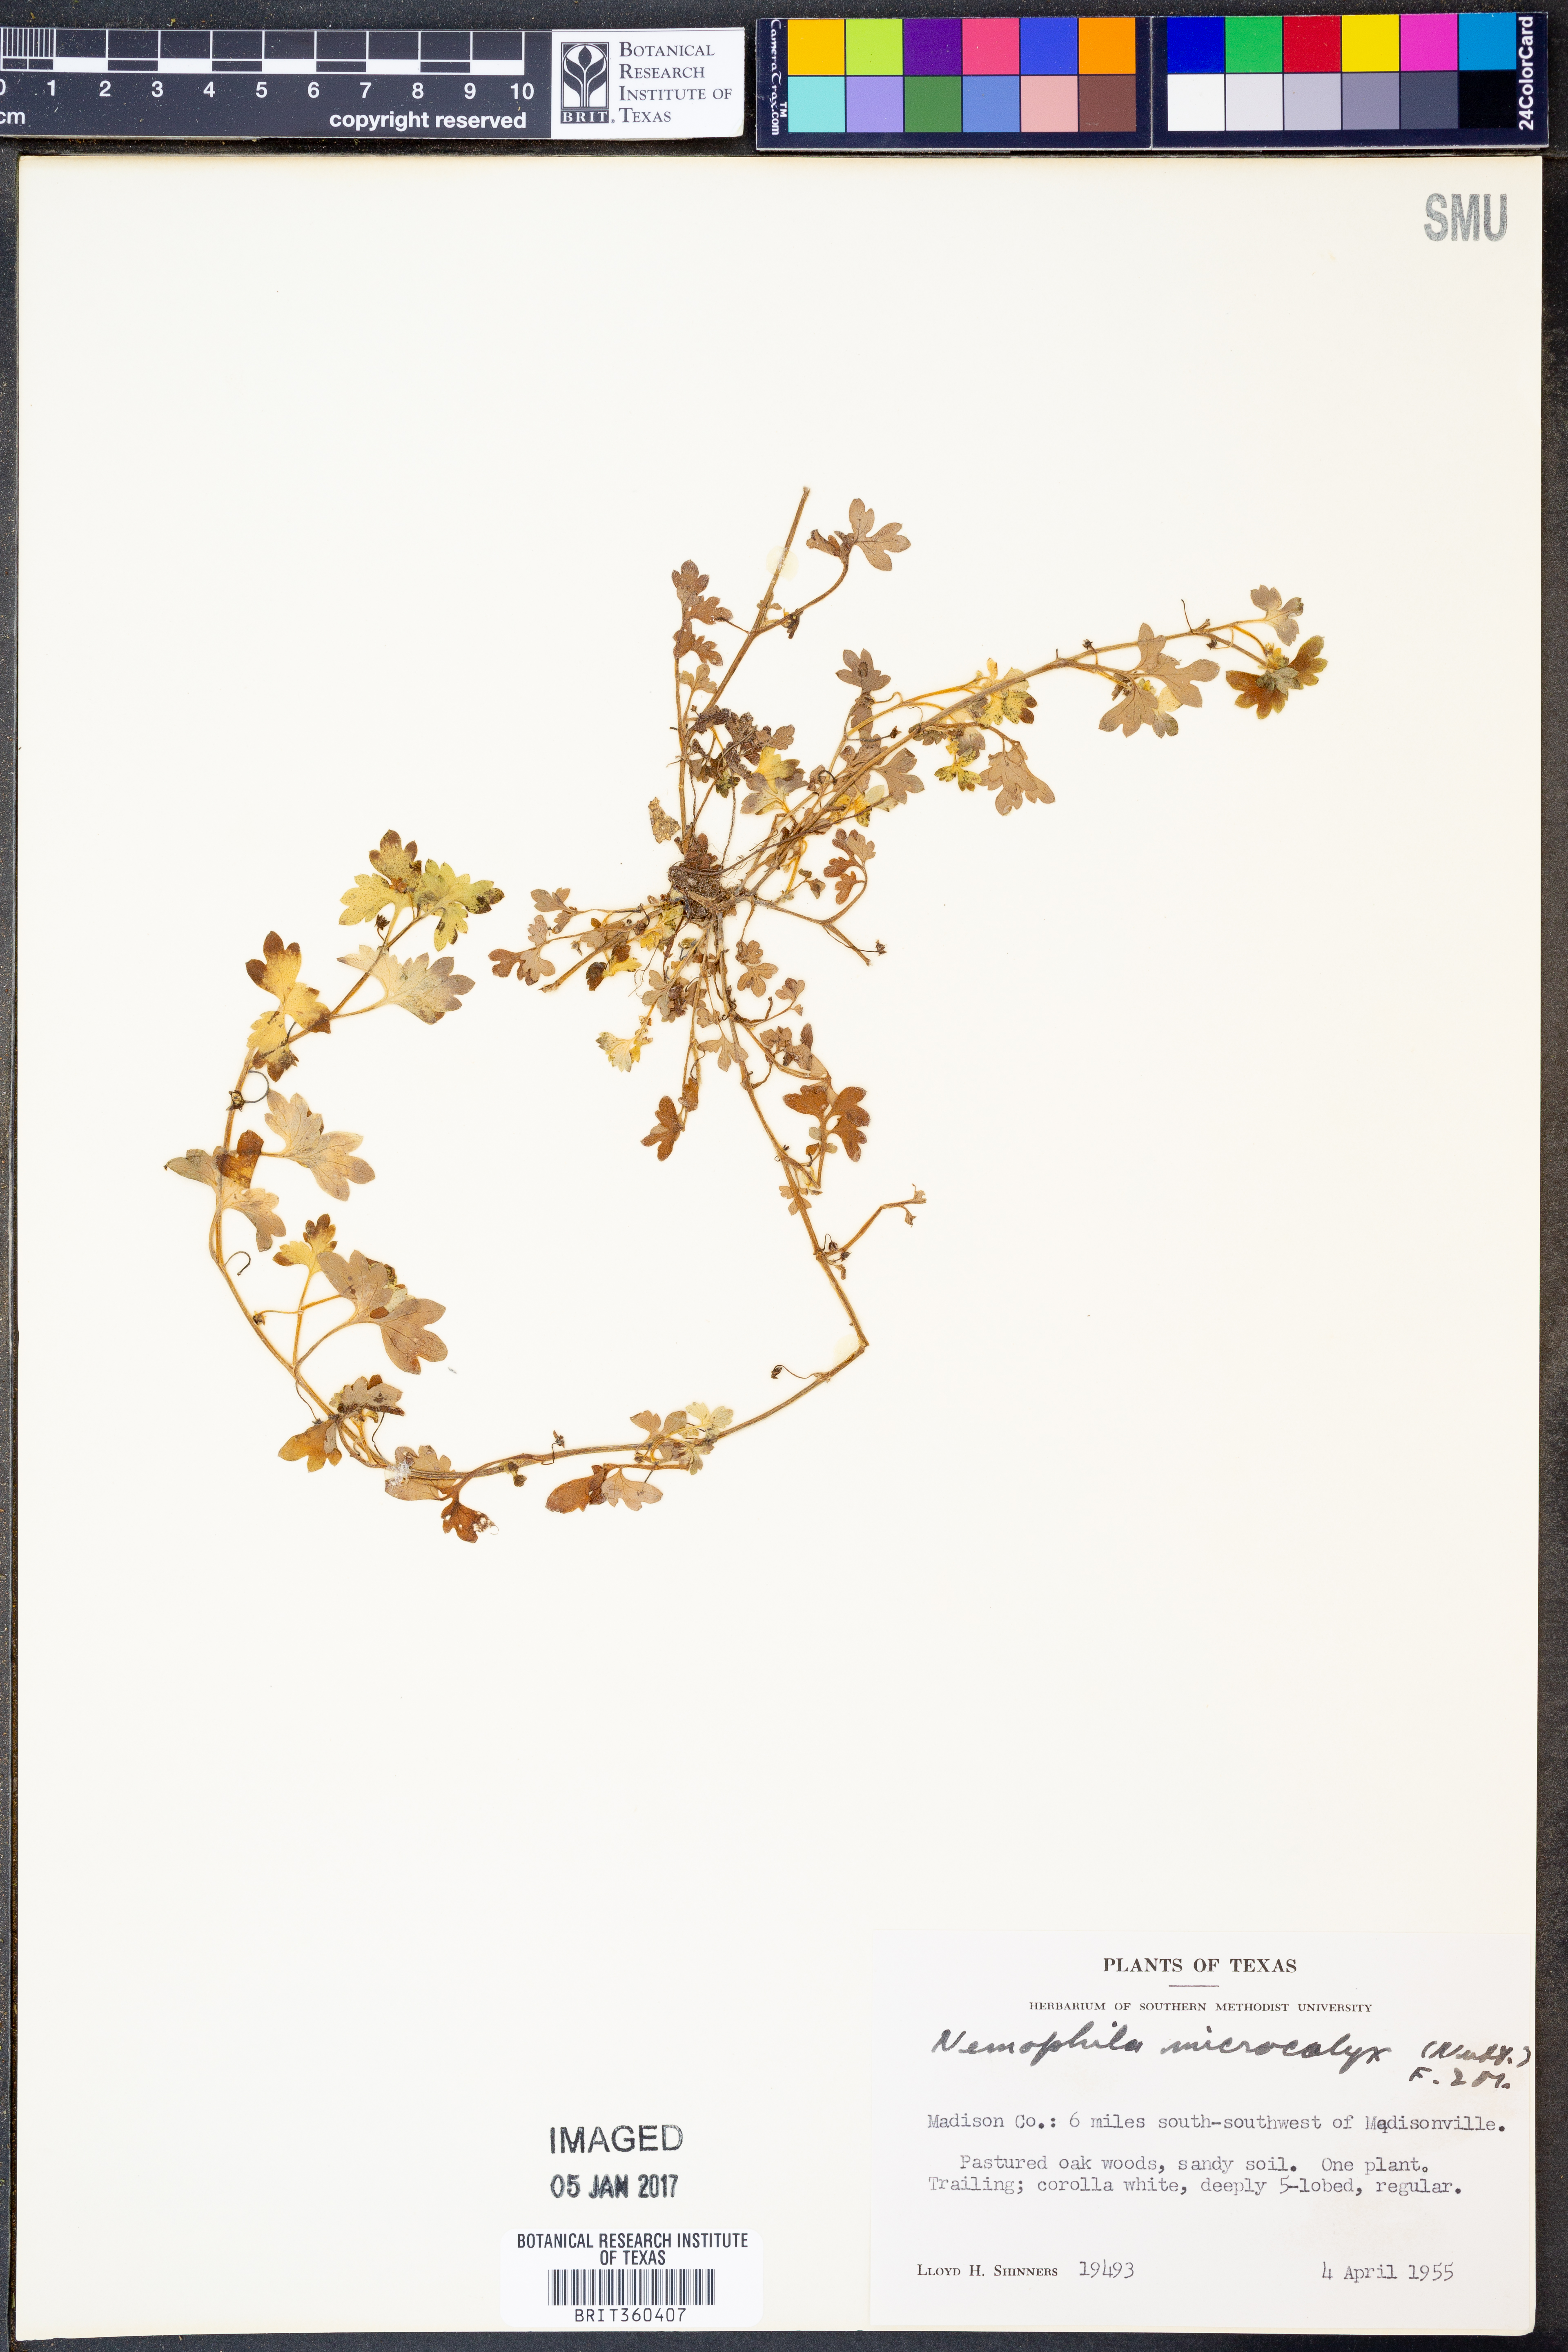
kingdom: Plantae
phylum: Tracheophyta
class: Magnoliopsida
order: Boraginales
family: Hydrophyllaceae
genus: Nemophila
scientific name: Nemophila aphylla
